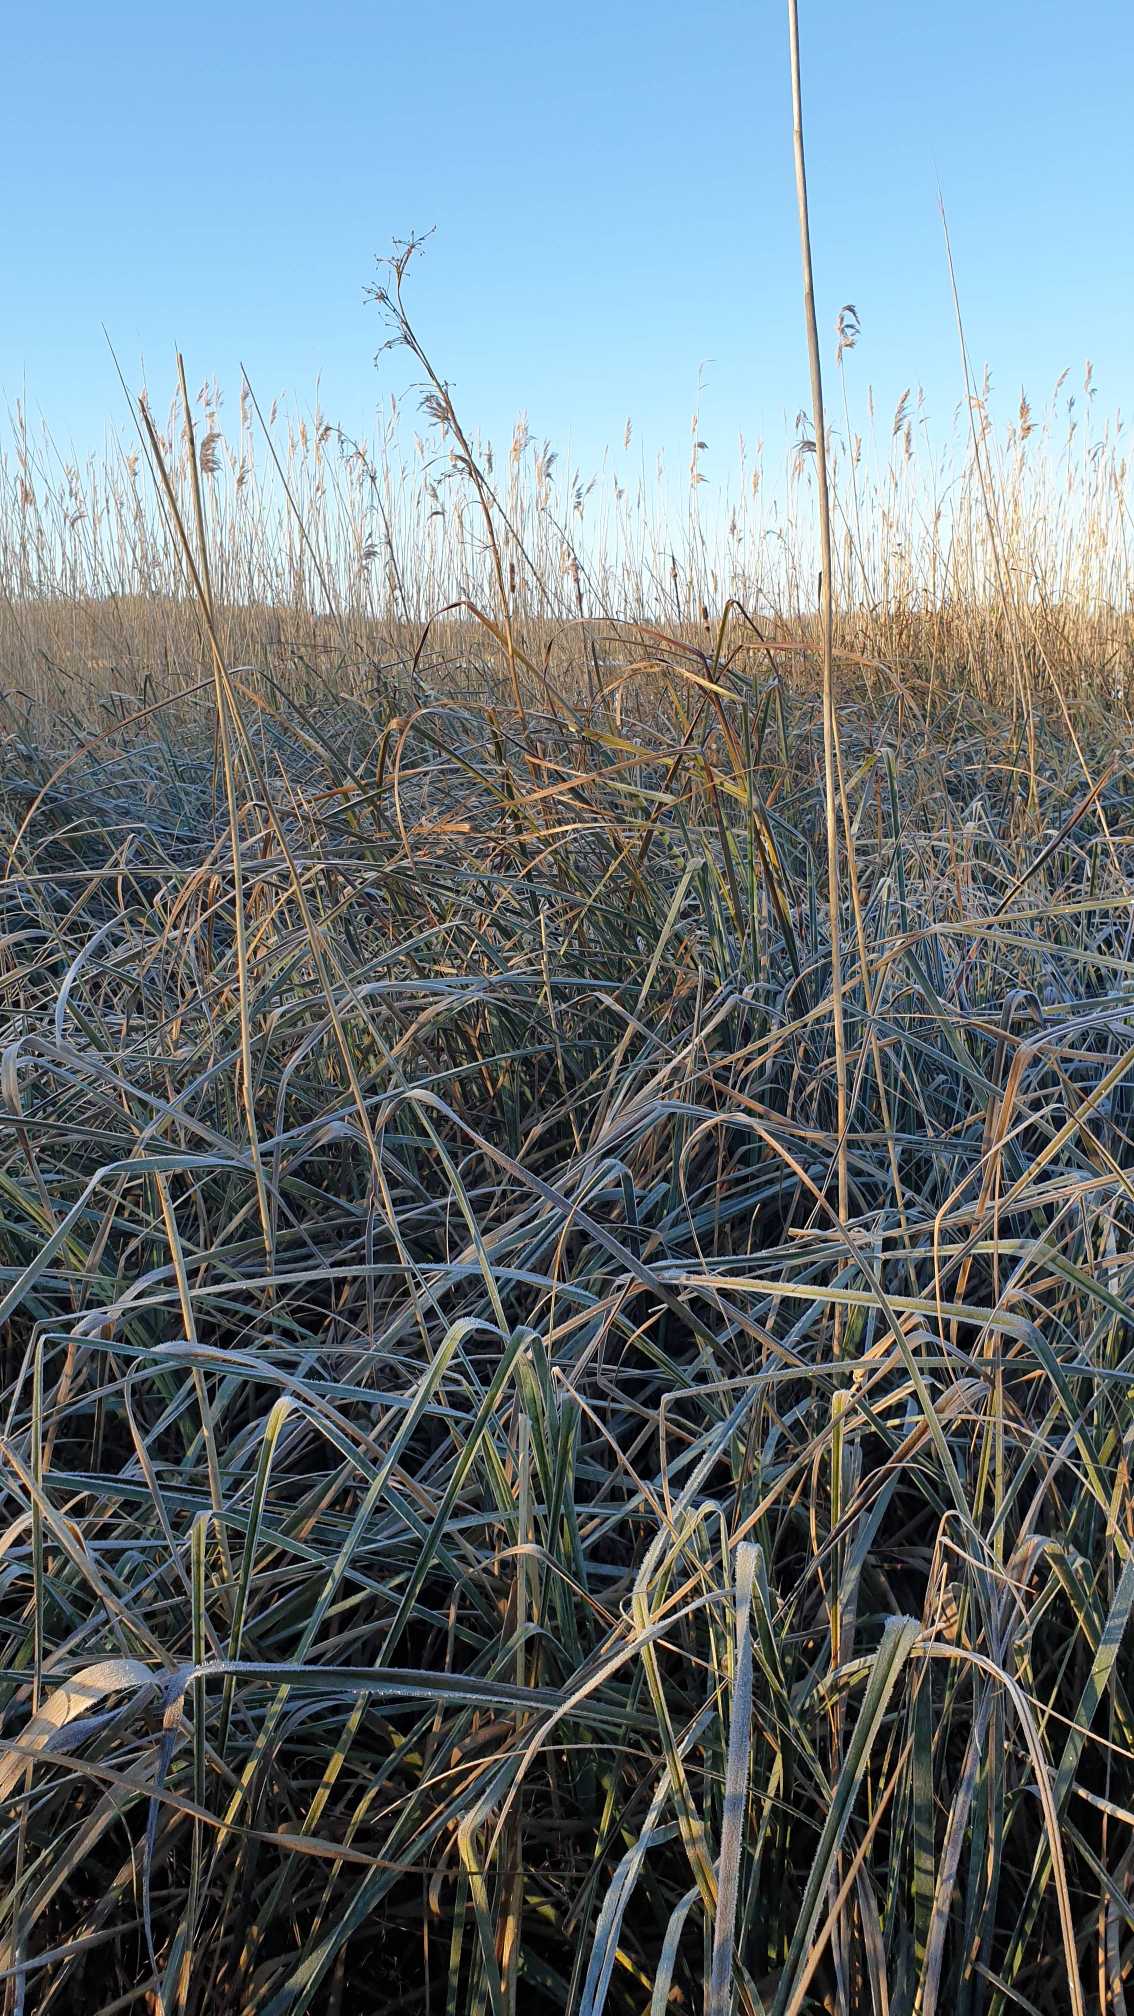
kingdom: Plantae
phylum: Tracheophyta
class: Liliopsida
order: Poales
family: Cyperaceae
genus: Cladium
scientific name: Cladium mariscus
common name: Hvas avneknippe
